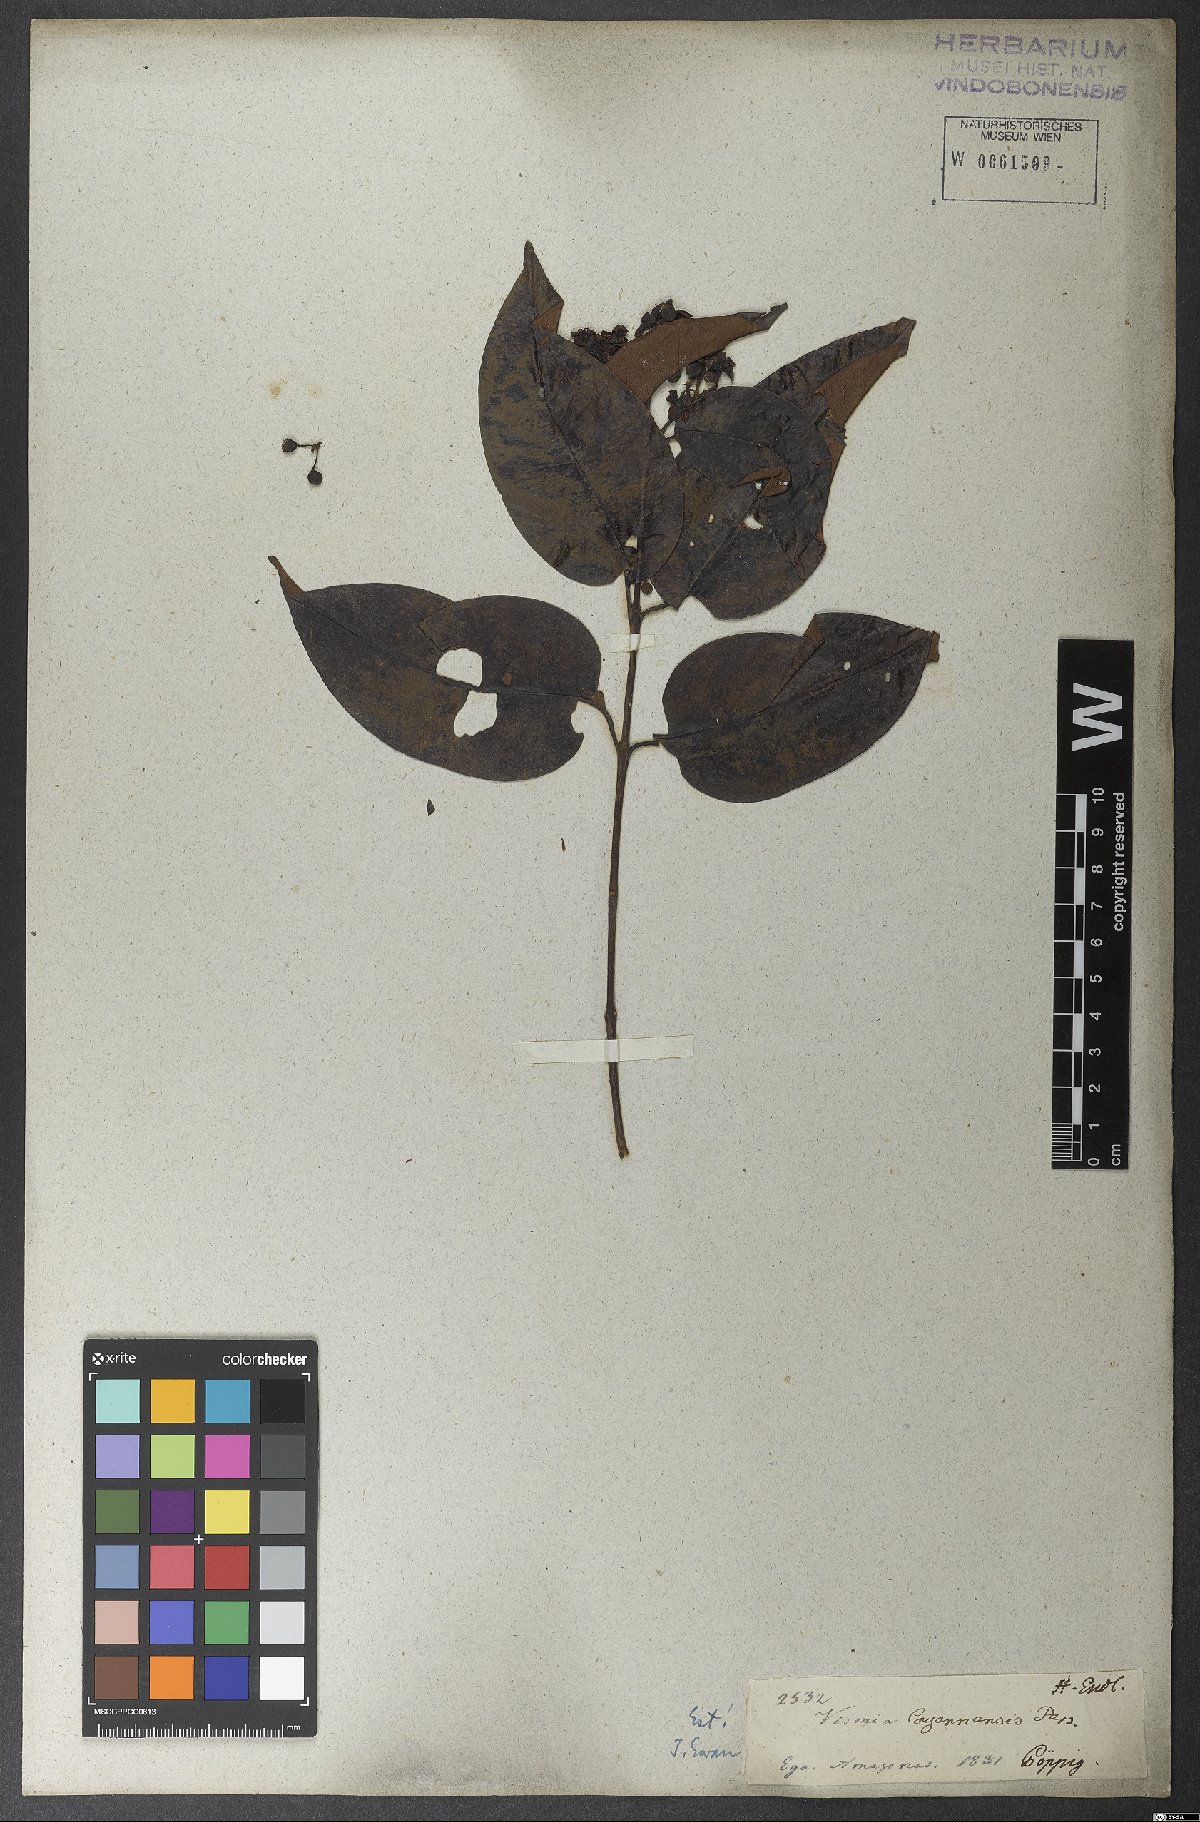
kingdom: Plantae
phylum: Tracheophyta
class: Magnoliopsida
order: Malpighiales
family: Hypericaceae
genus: Vismia
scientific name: Vismia cayennensis
